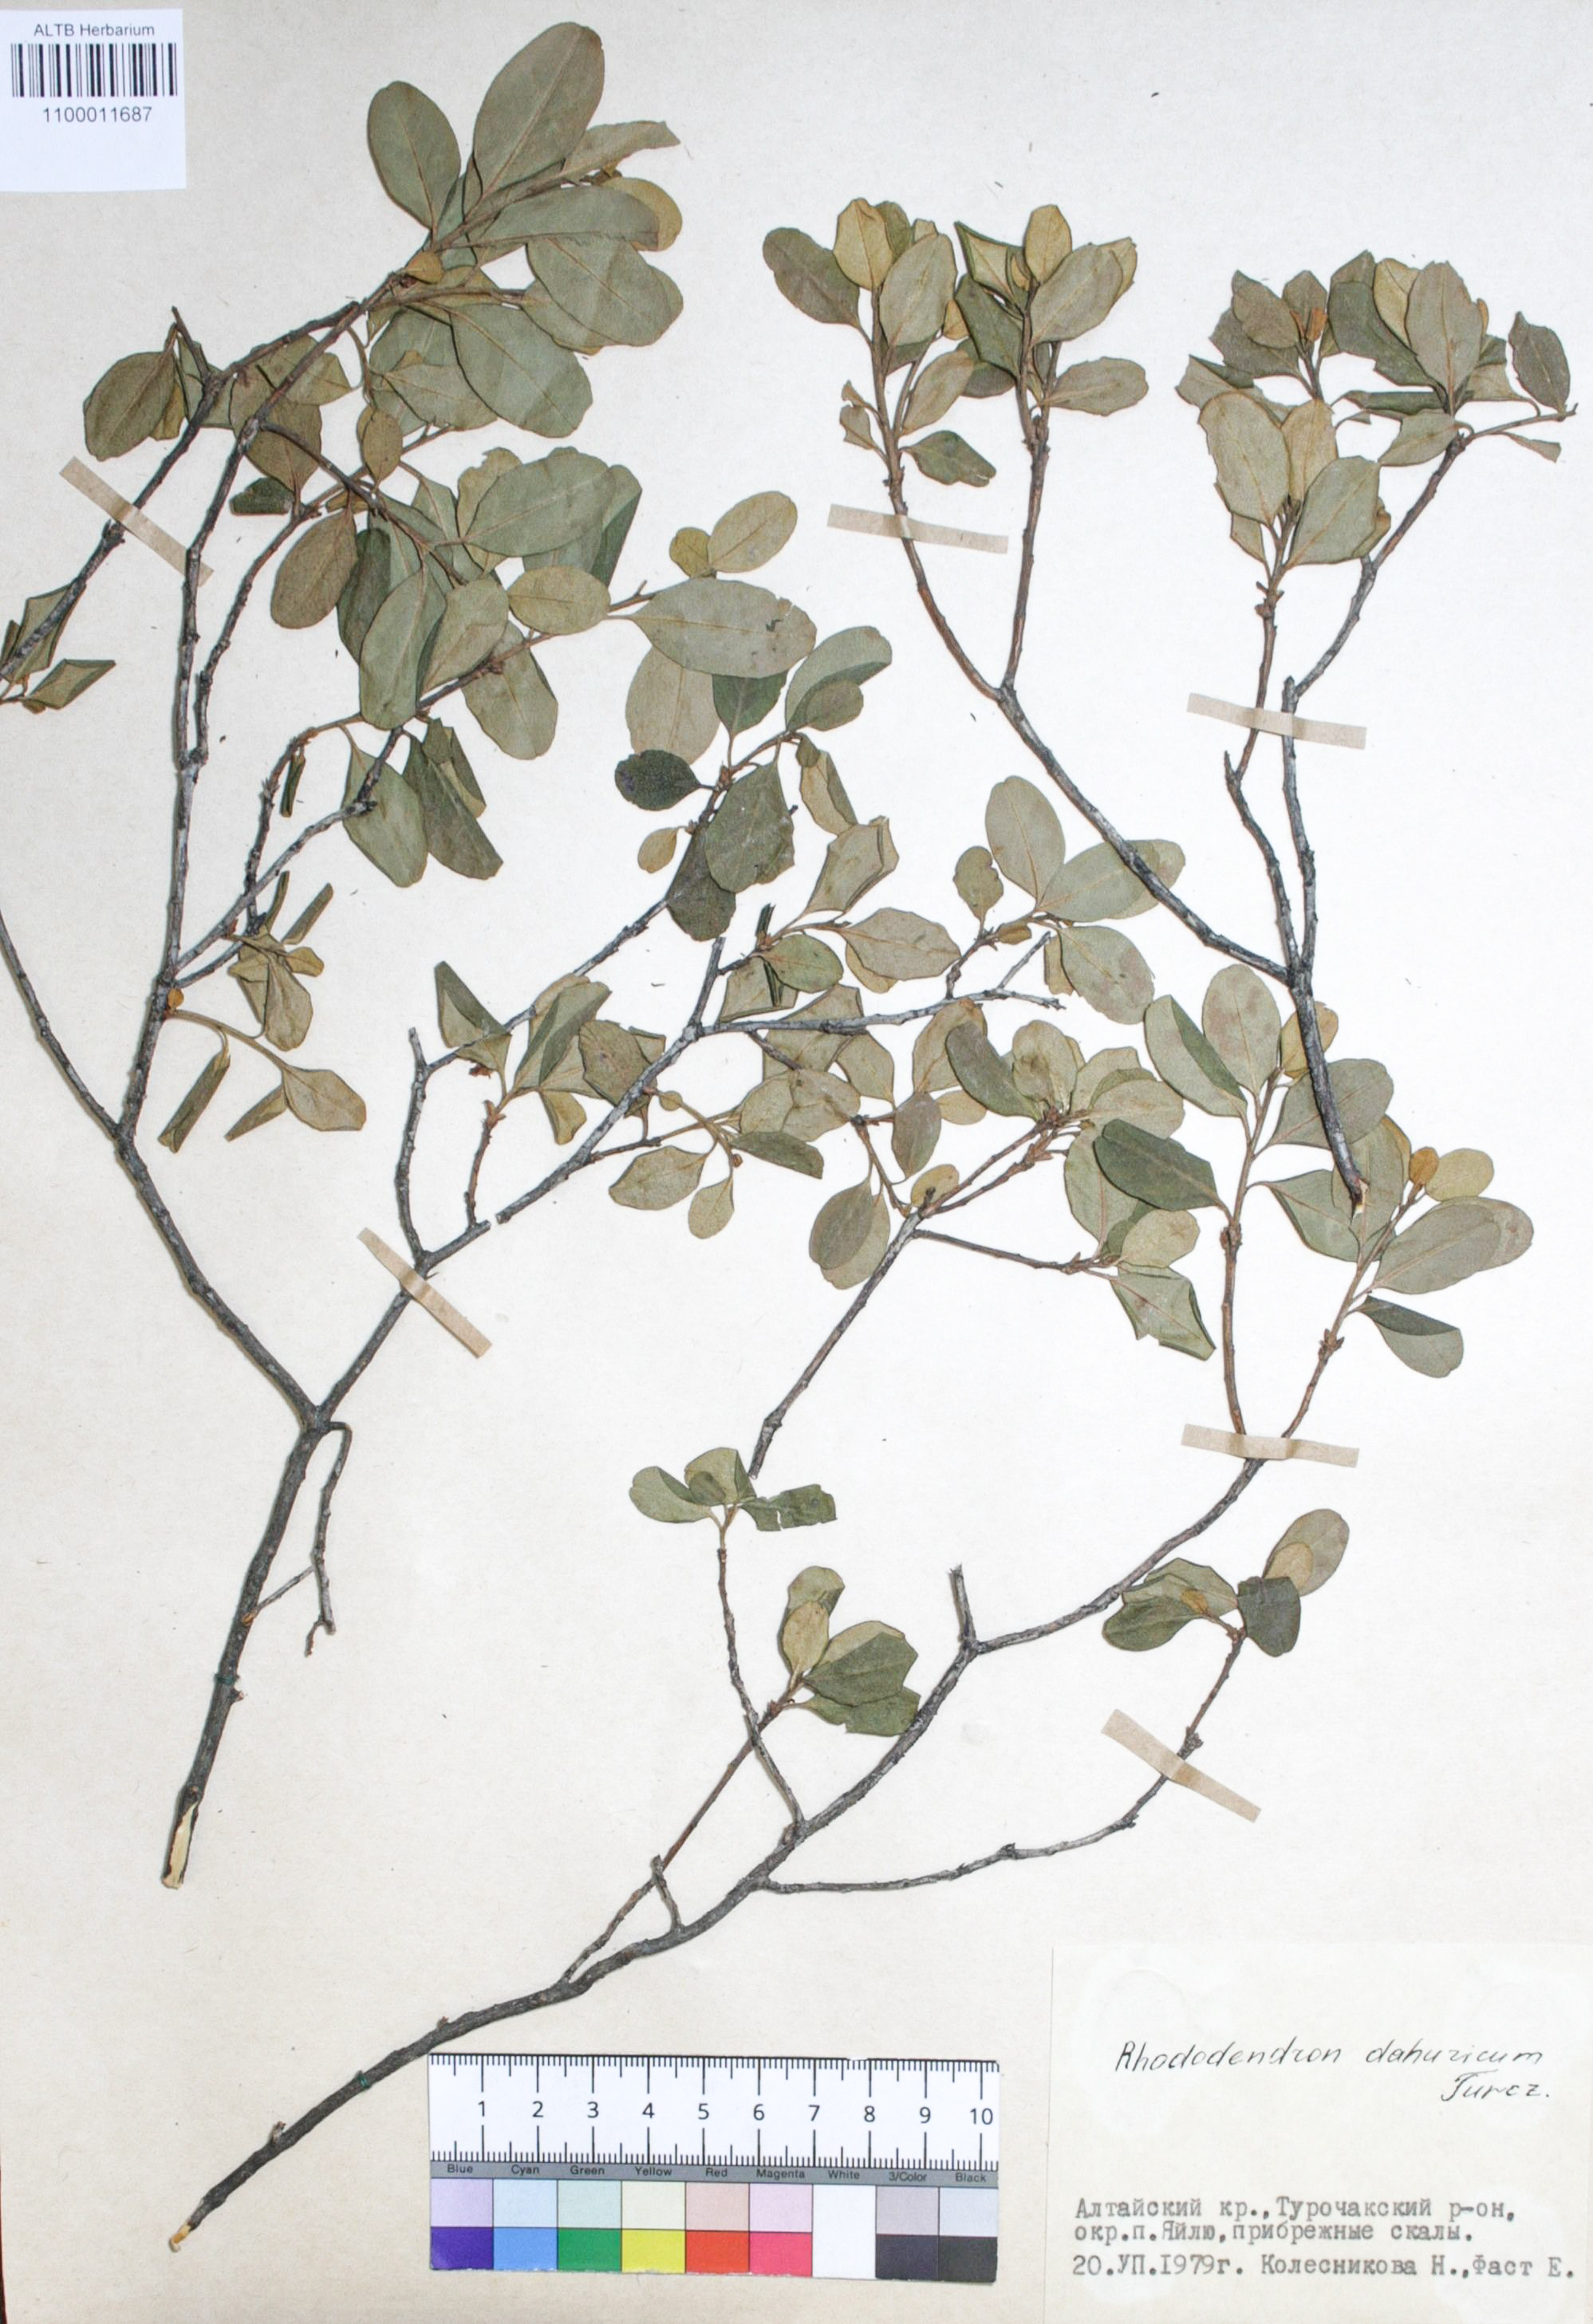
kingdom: Plantae
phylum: Tracheophyta
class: Magnoliopsida
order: Ericales
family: Ericaceae
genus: Rhododendron
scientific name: Rhododendron dahuricum
